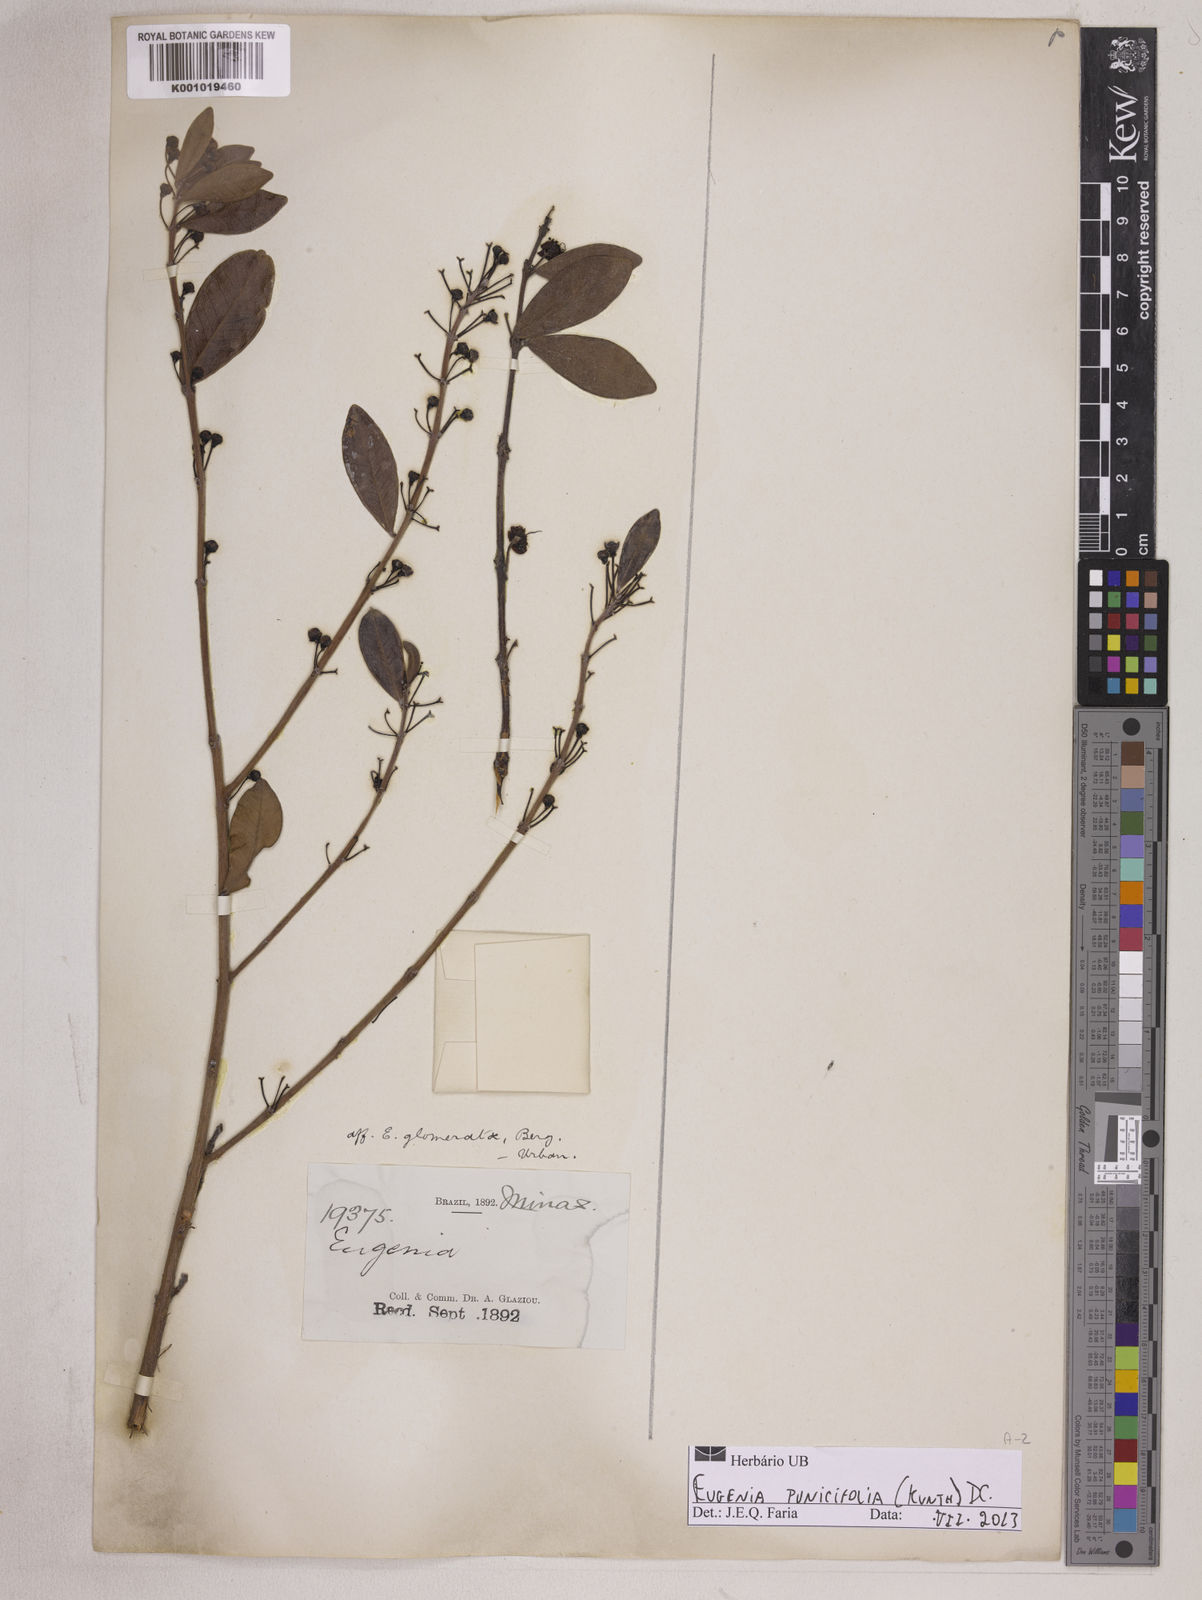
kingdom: Plantae
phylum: Tracheophyta
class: Magnoliopsida
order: Myrtales
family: Myrtaceae
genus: Eugenia
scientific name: Eugenia punicifolia
